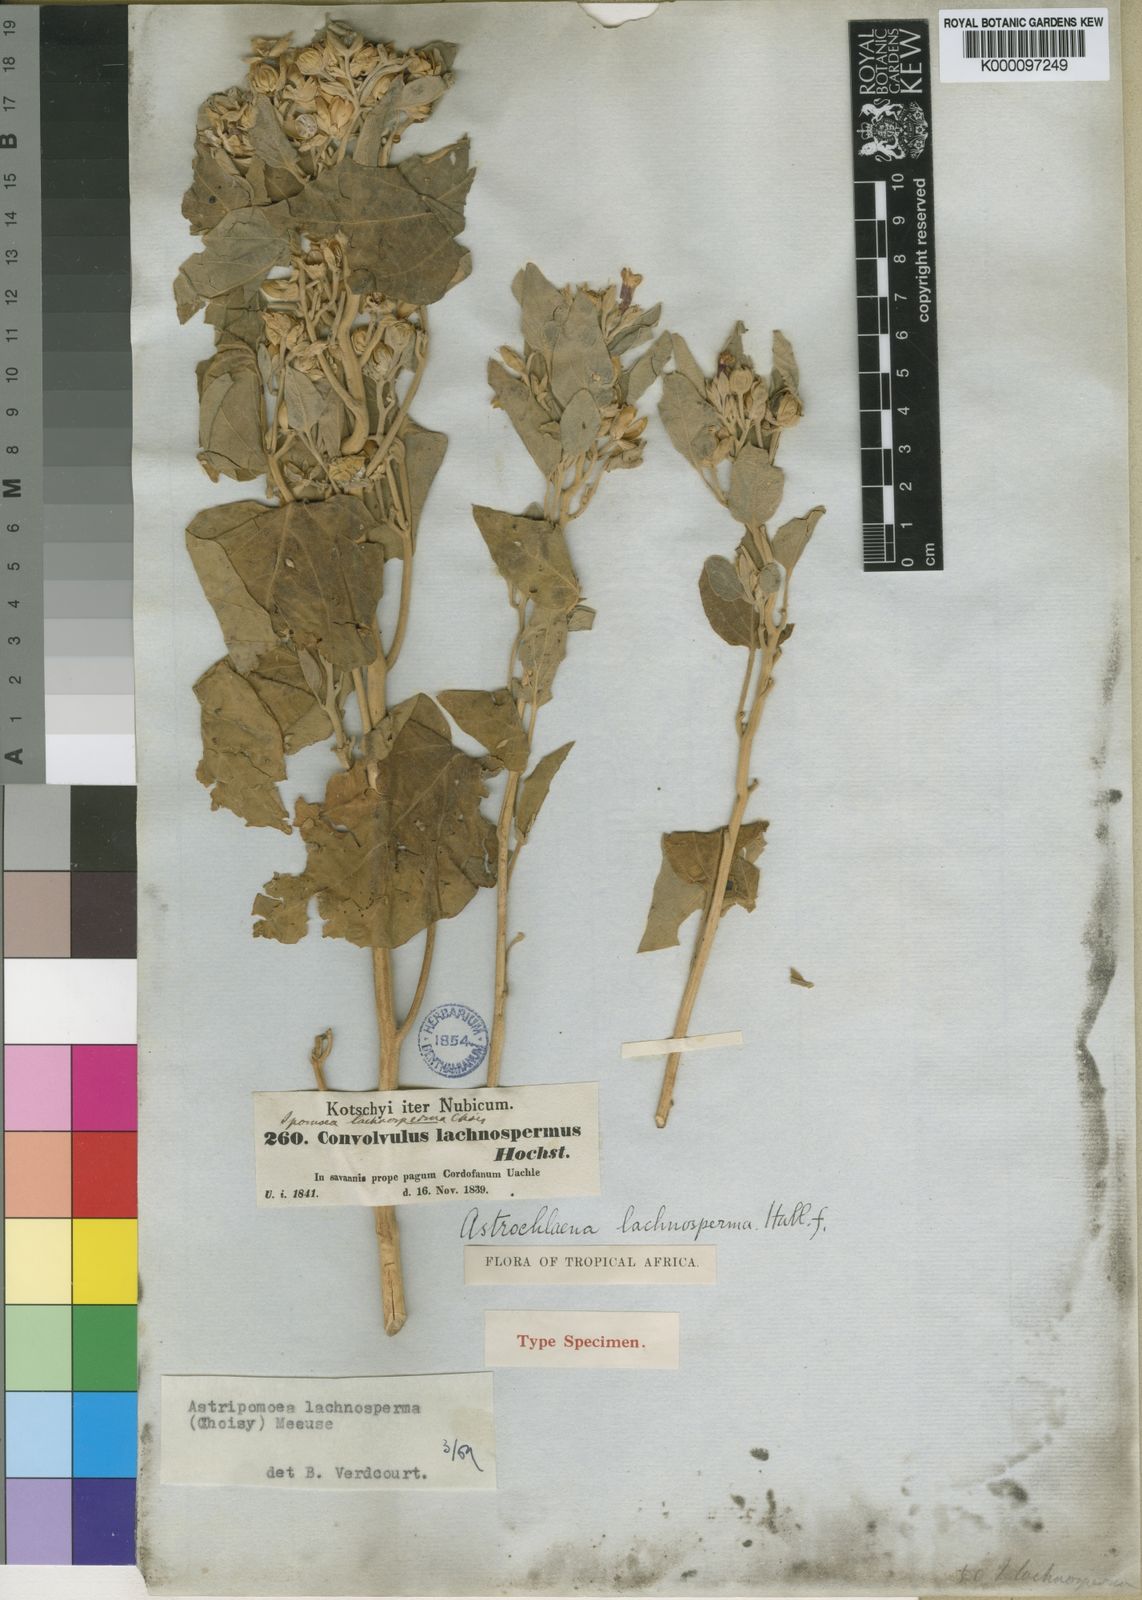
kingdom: Plantae
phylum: Tracheophyta
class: Magnoliopsida
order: Solanales
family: Convolvulaceae
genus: Astripomoea
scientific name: Astripomoea lachnosperma
